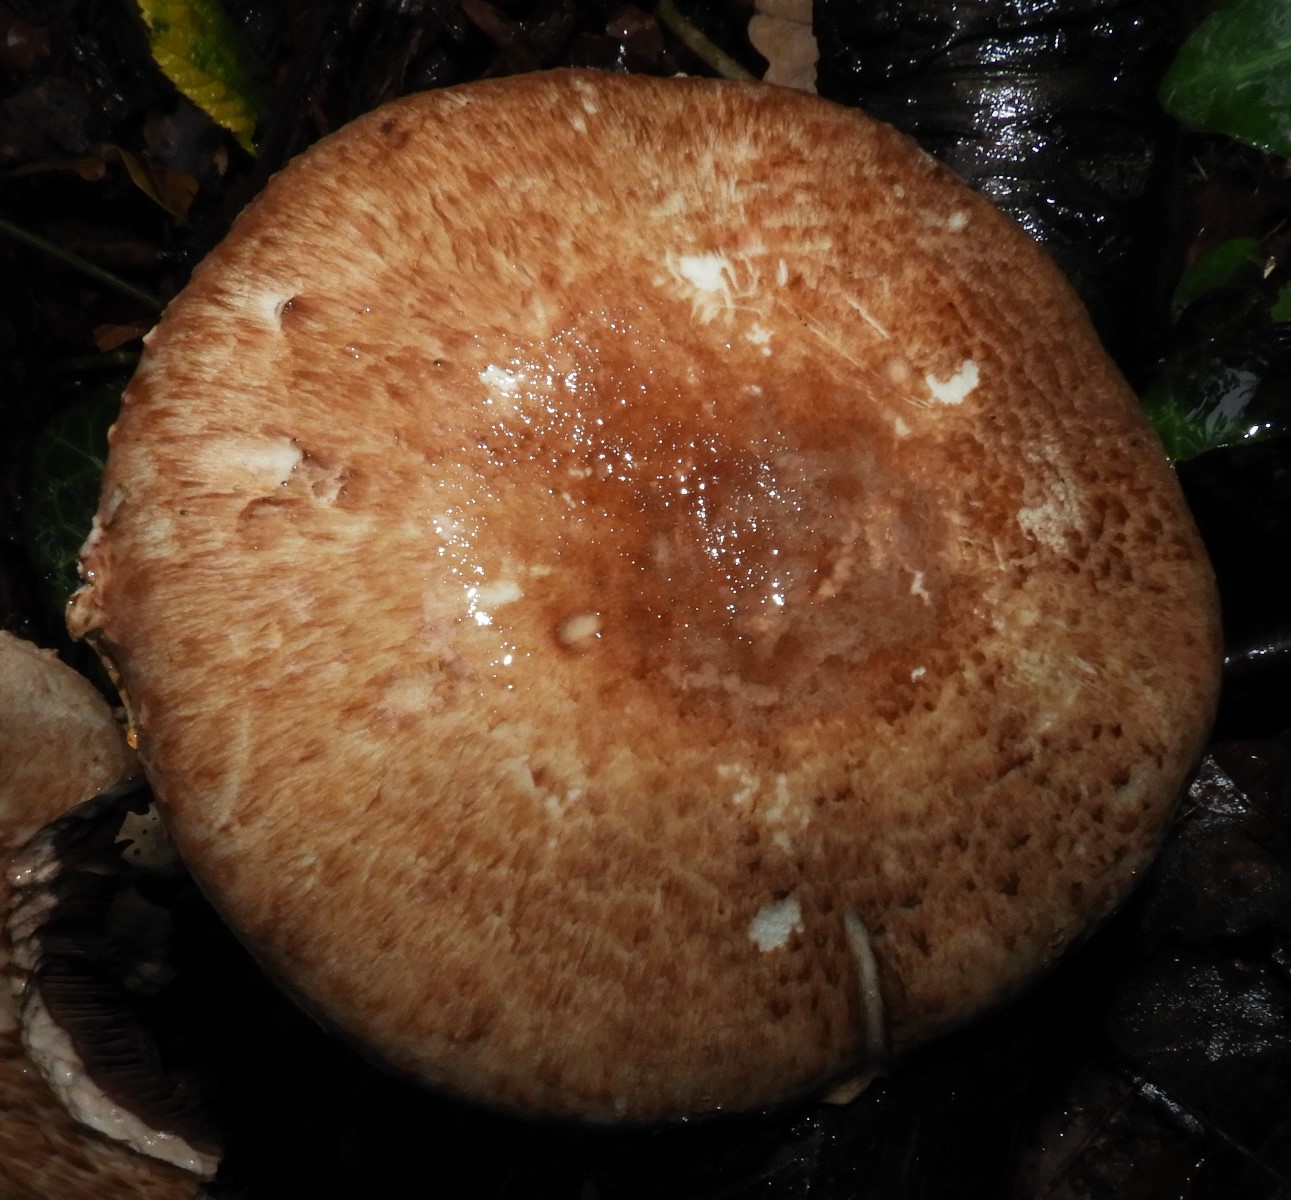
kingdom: Fungi
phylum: Basidiomycota
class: Agaricomycetes
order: Agaricales
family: Agaricaceae
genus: Agaricus
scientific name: Agaricus brunneolus
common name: purpur-champignon
